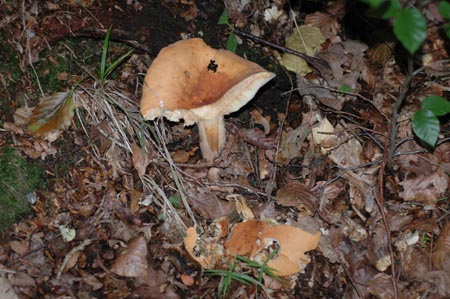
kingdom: Fungi
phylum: Basidiomycota
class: Agaricomycetes
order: Russulales
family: Russulaceae
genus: Lactifluus
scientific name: Lactifluus volemus
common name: spiselig mælkehat
